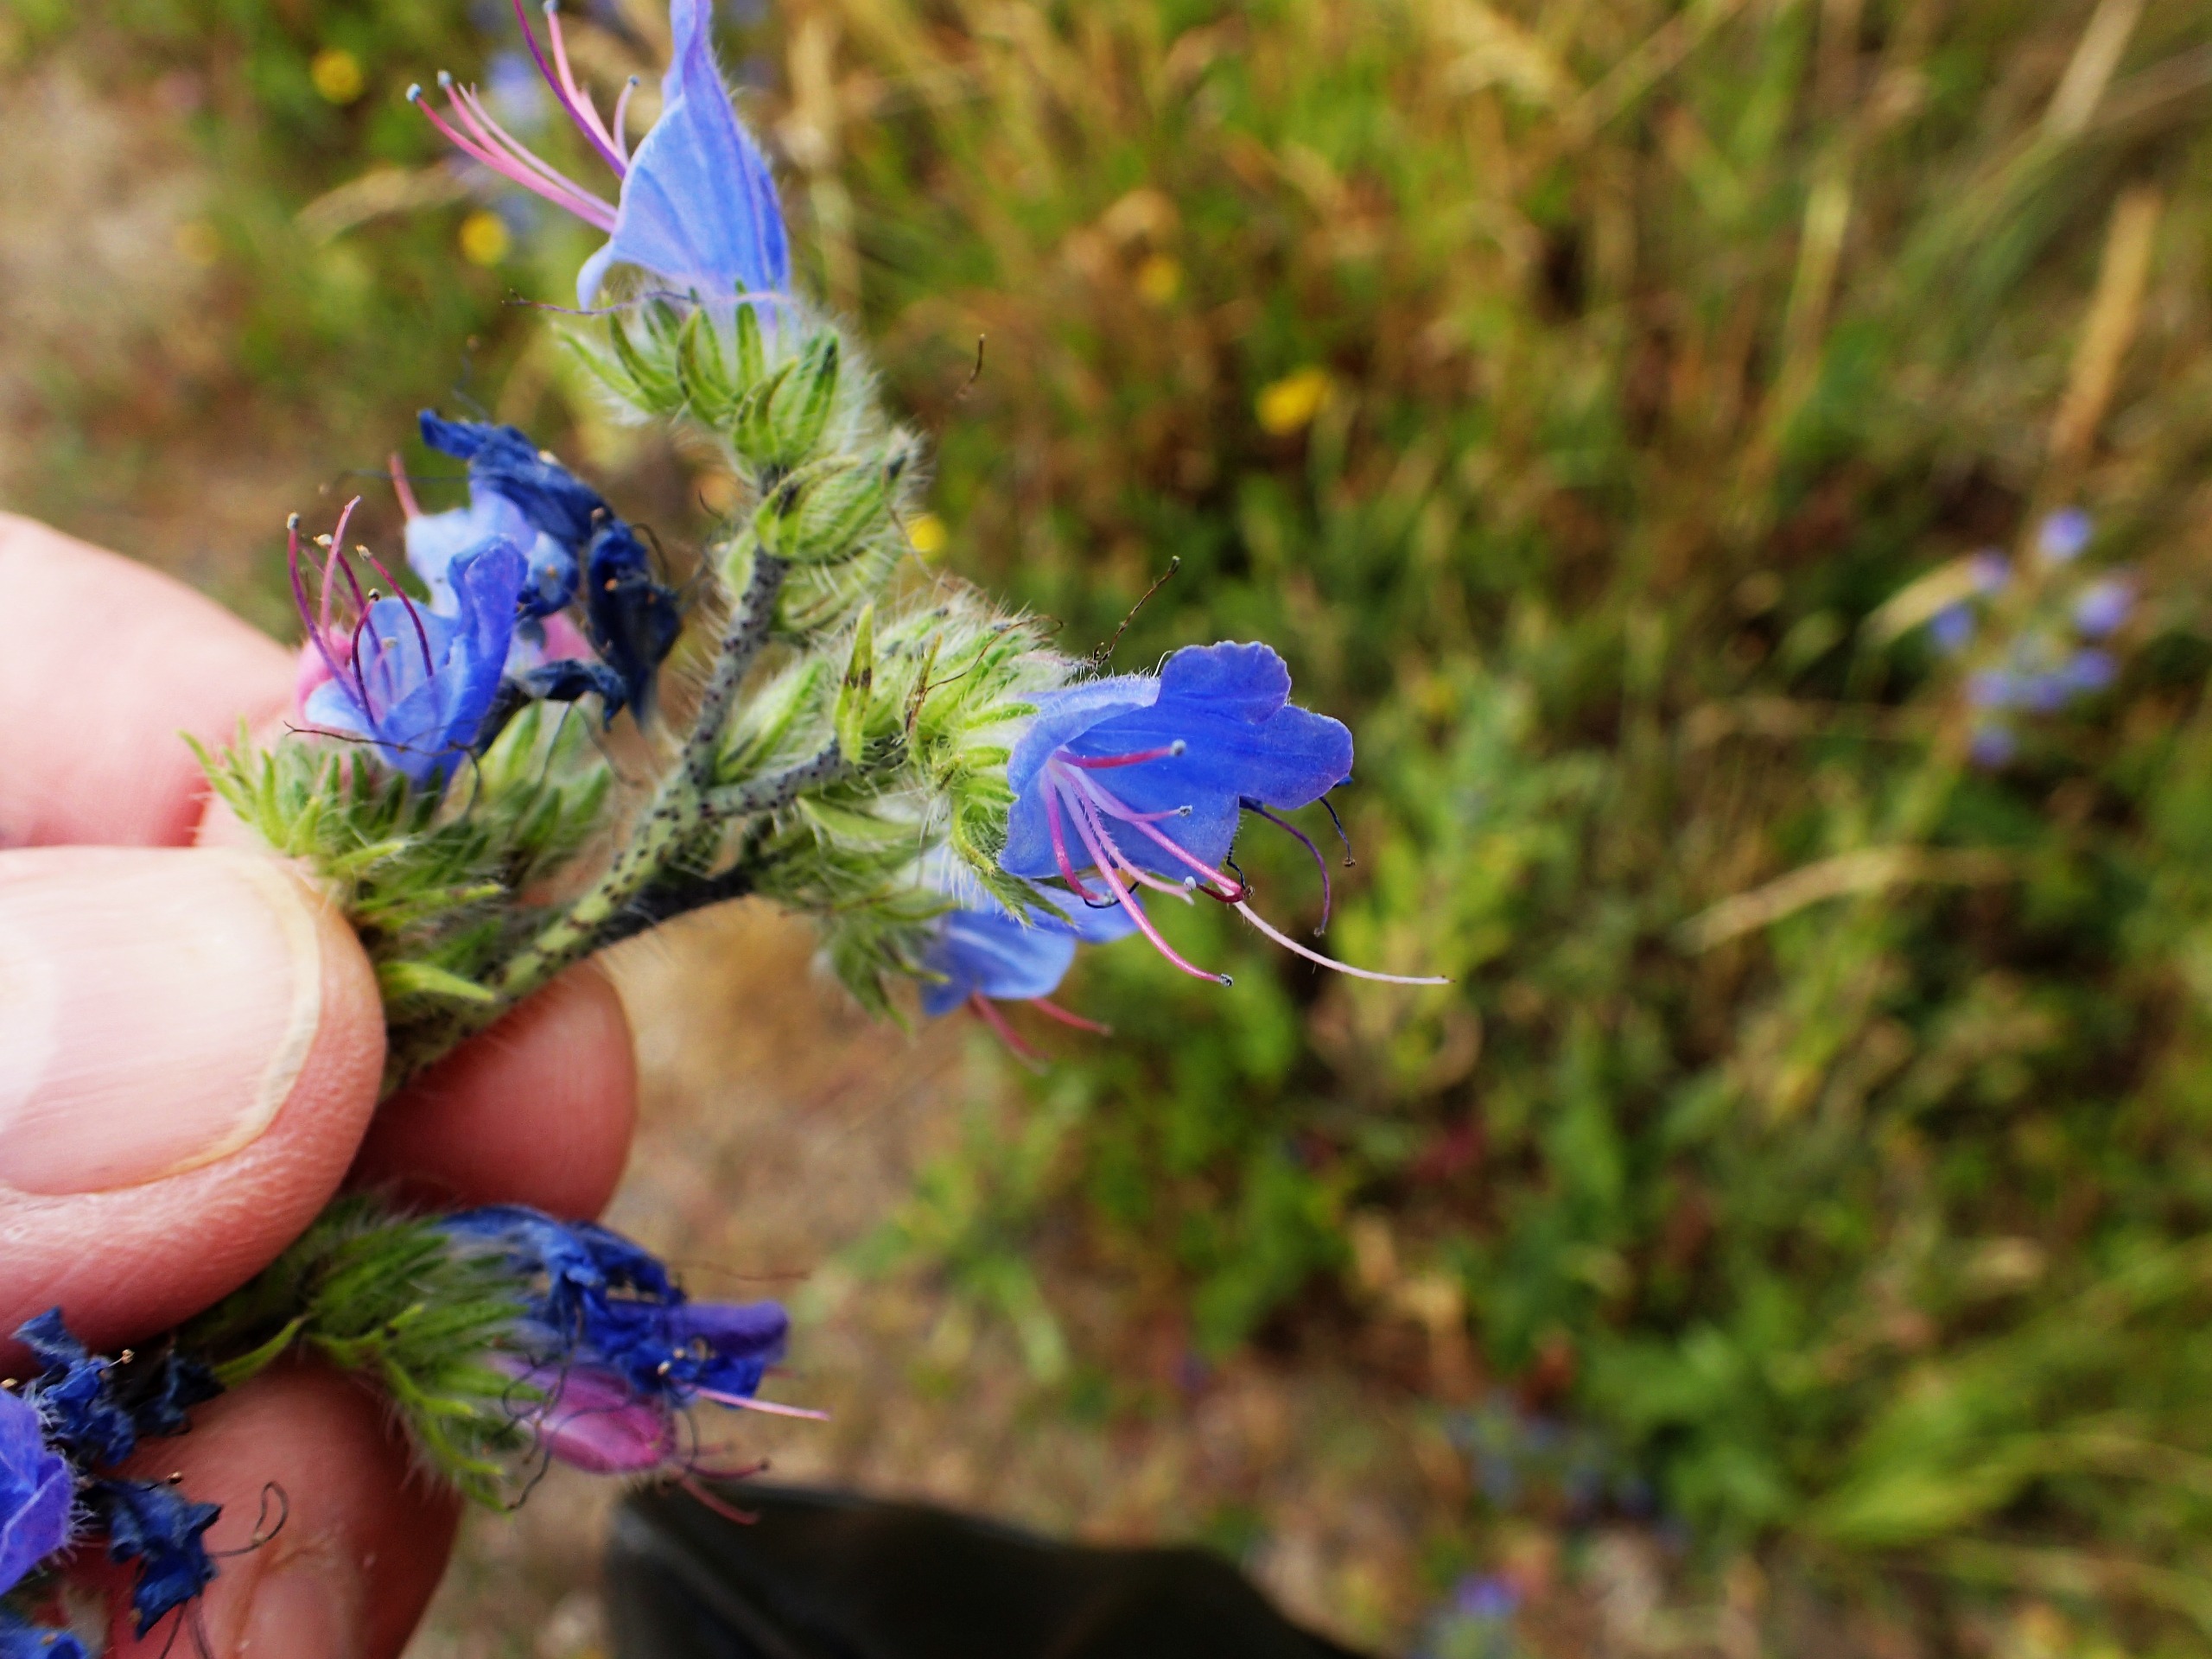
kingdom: Plantae
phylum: Tracheophyta
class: Magnoliopsida
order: Boraginales
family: Boraginaceae
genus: Echium
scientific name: Echium vulgare
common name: Slangehoved
